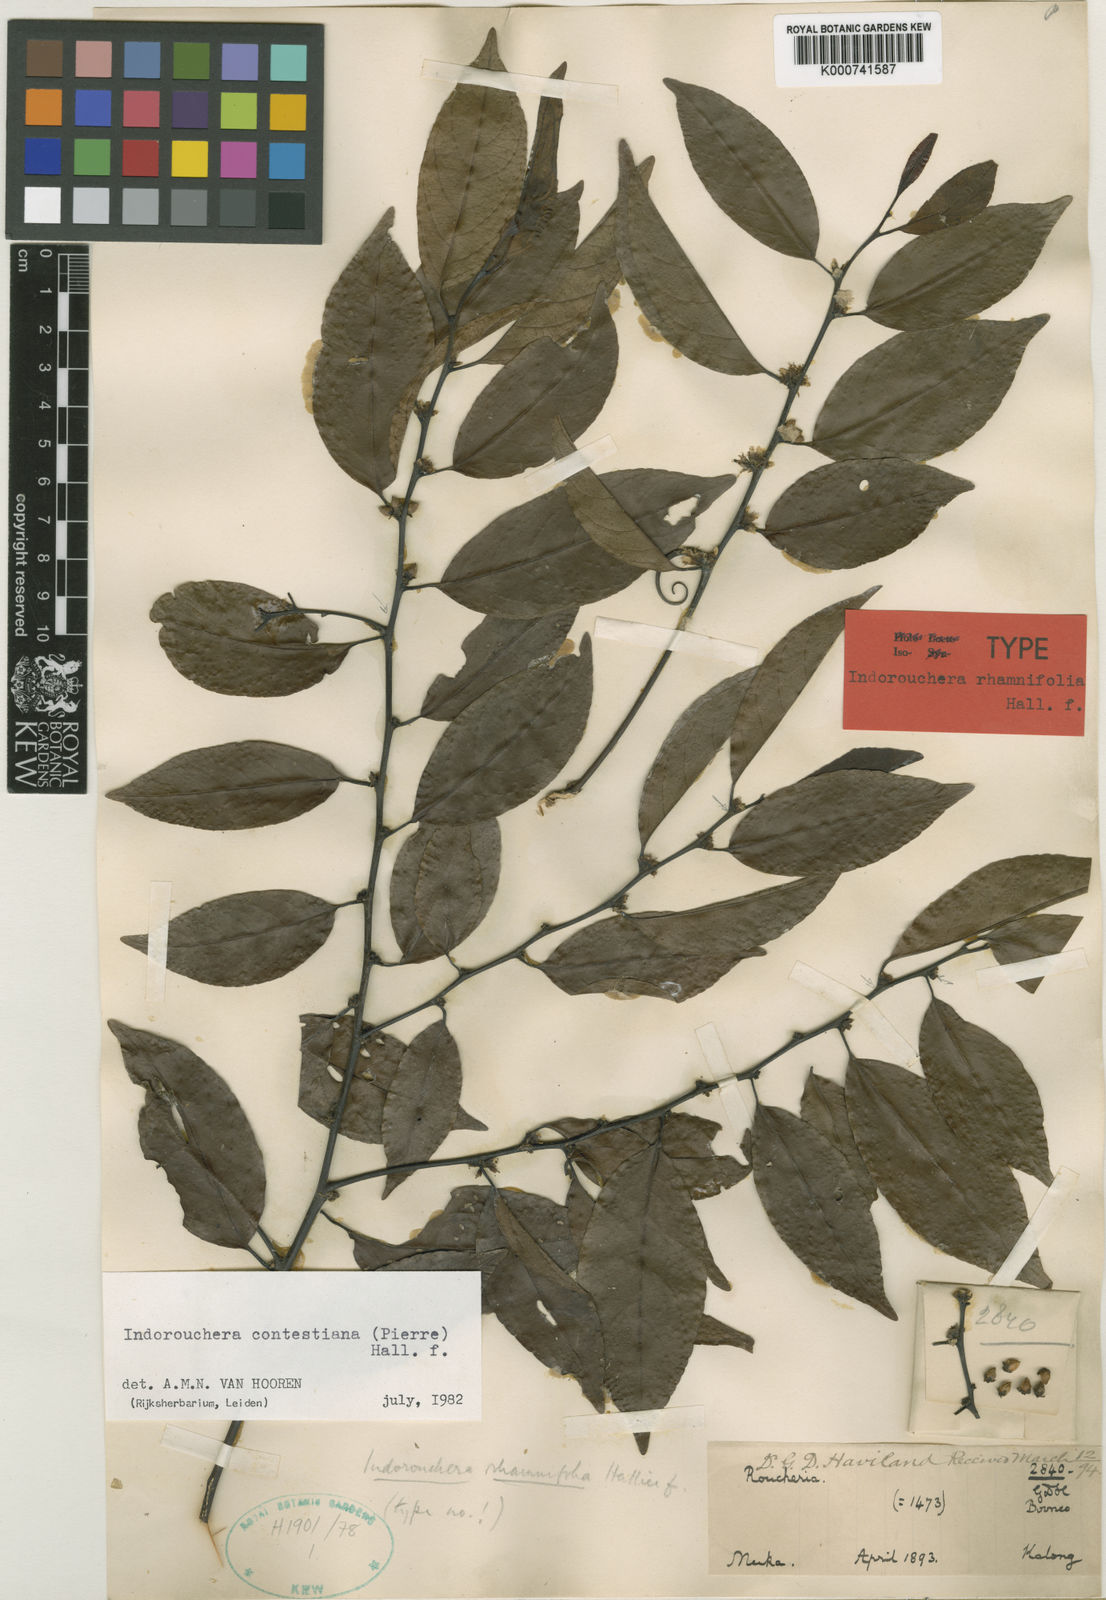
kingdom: Plantae
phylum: Tracheophyta
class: Magnoliopsida
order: Malpighiales
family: Linaceae
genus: Indorouchera
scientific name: Indorouchera contestiana
